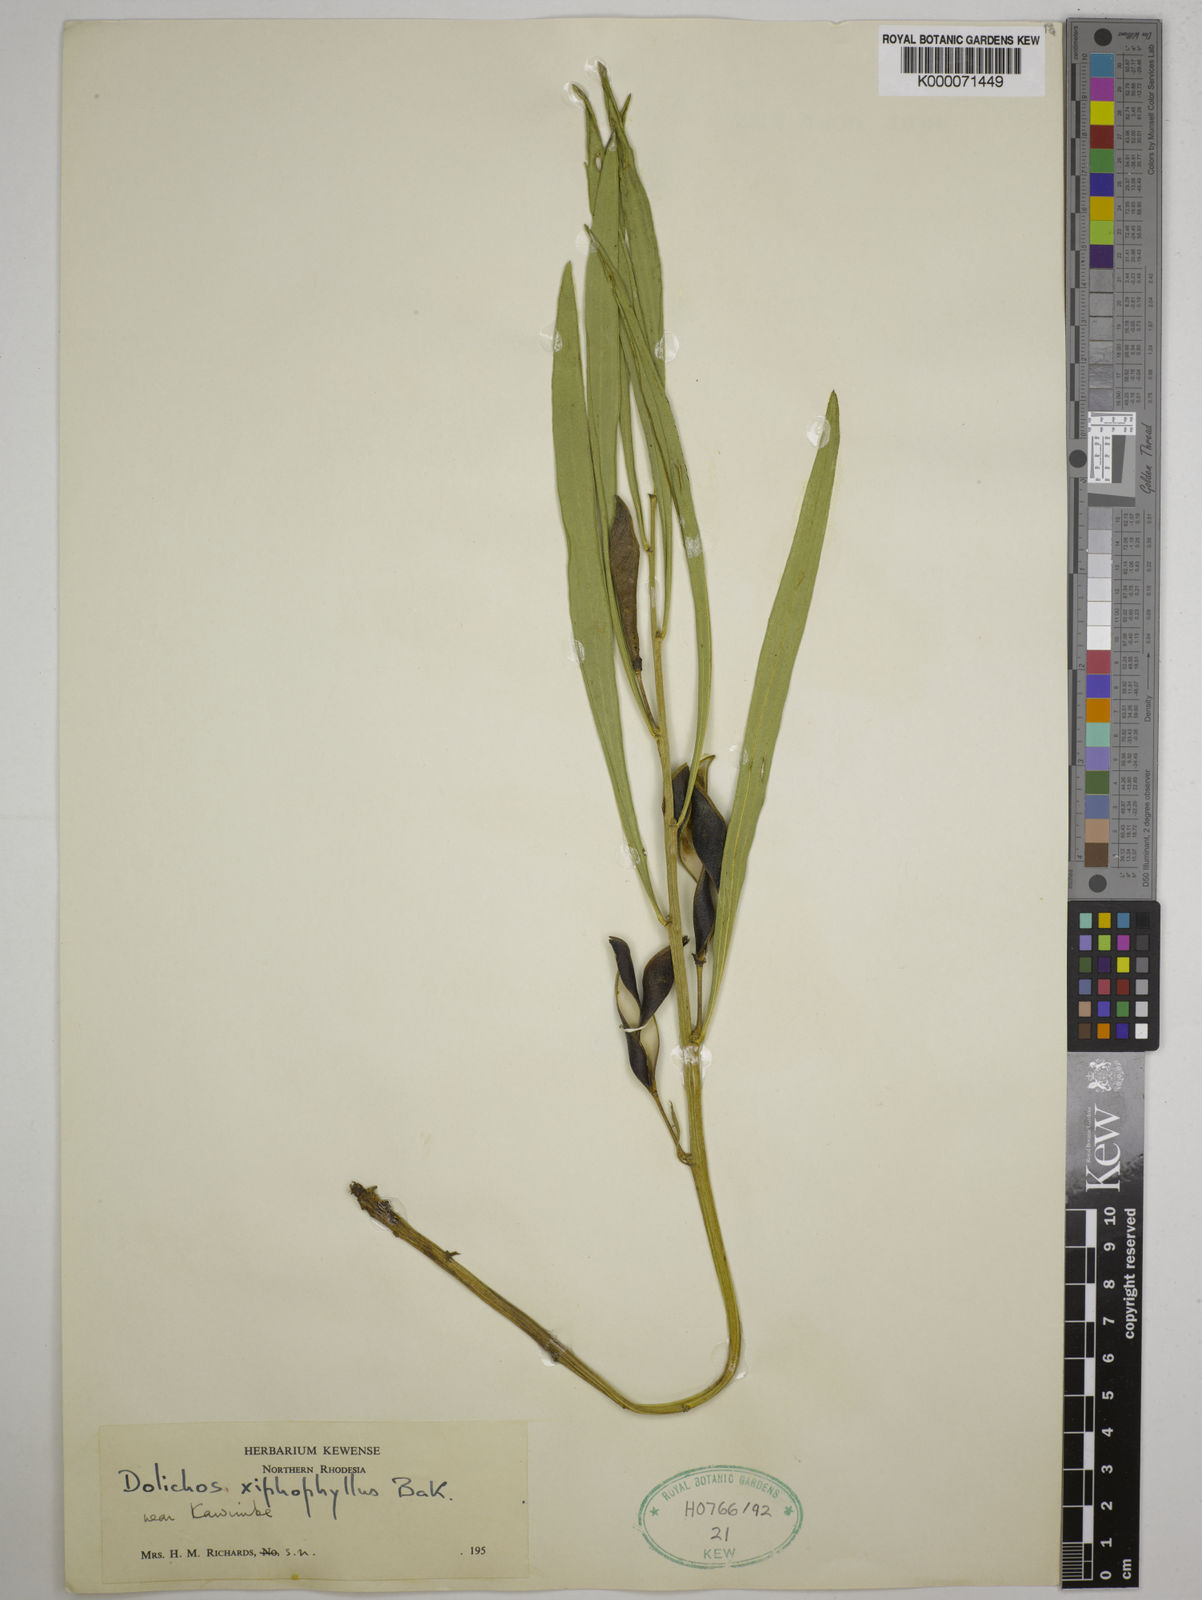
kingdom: Plantae
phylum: Tracheophyta
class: Magnoliopsida
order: Fabales
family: Fabaceae
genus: Dolichos
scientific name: Dolichos xiphophyllus
